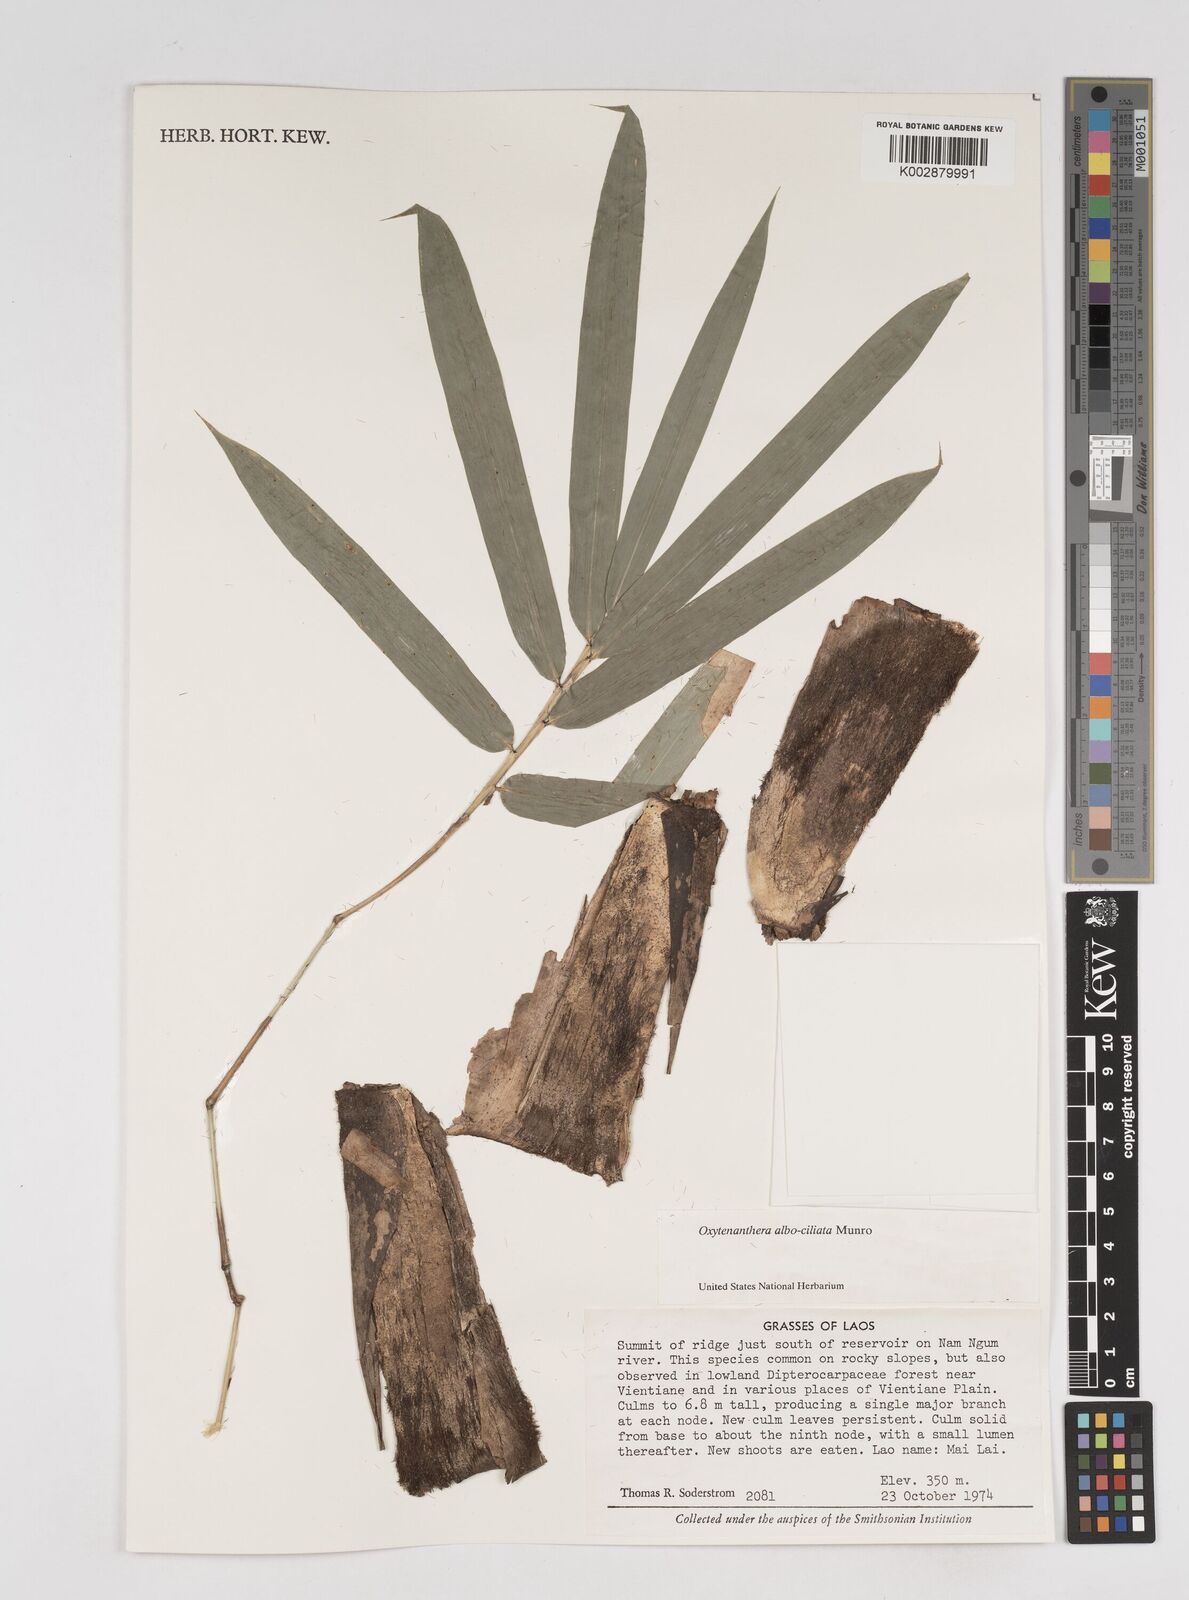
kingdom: Plantae
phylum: Tracheophyta
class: Liliopsida
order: Poales
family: Poaceae
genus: Gigantochloa
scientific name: Gigantochloa albociliata
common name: White-fringe gigantochloa
